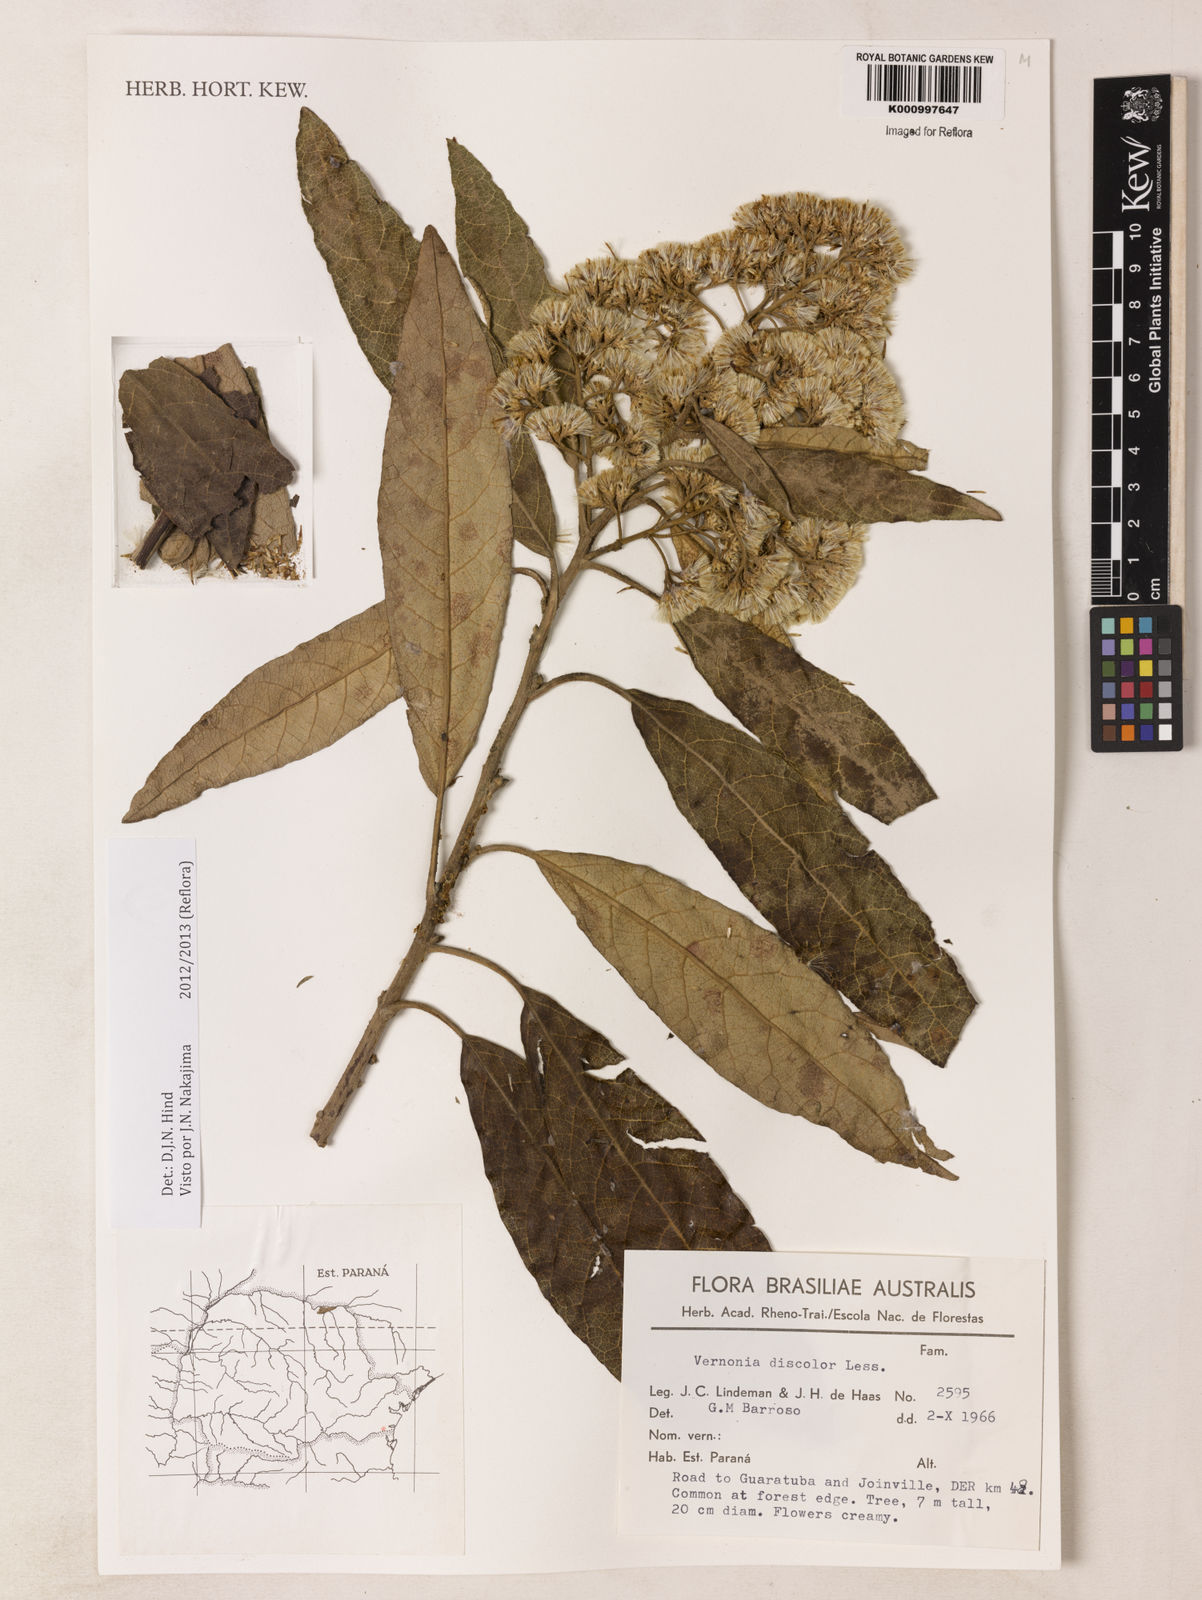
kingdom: Plantae
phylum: Tracheophyta
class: Magnoliopsida
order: Asterales
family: Asteraceae
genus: Vernonanthura
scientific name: Vernonanthura discolor
